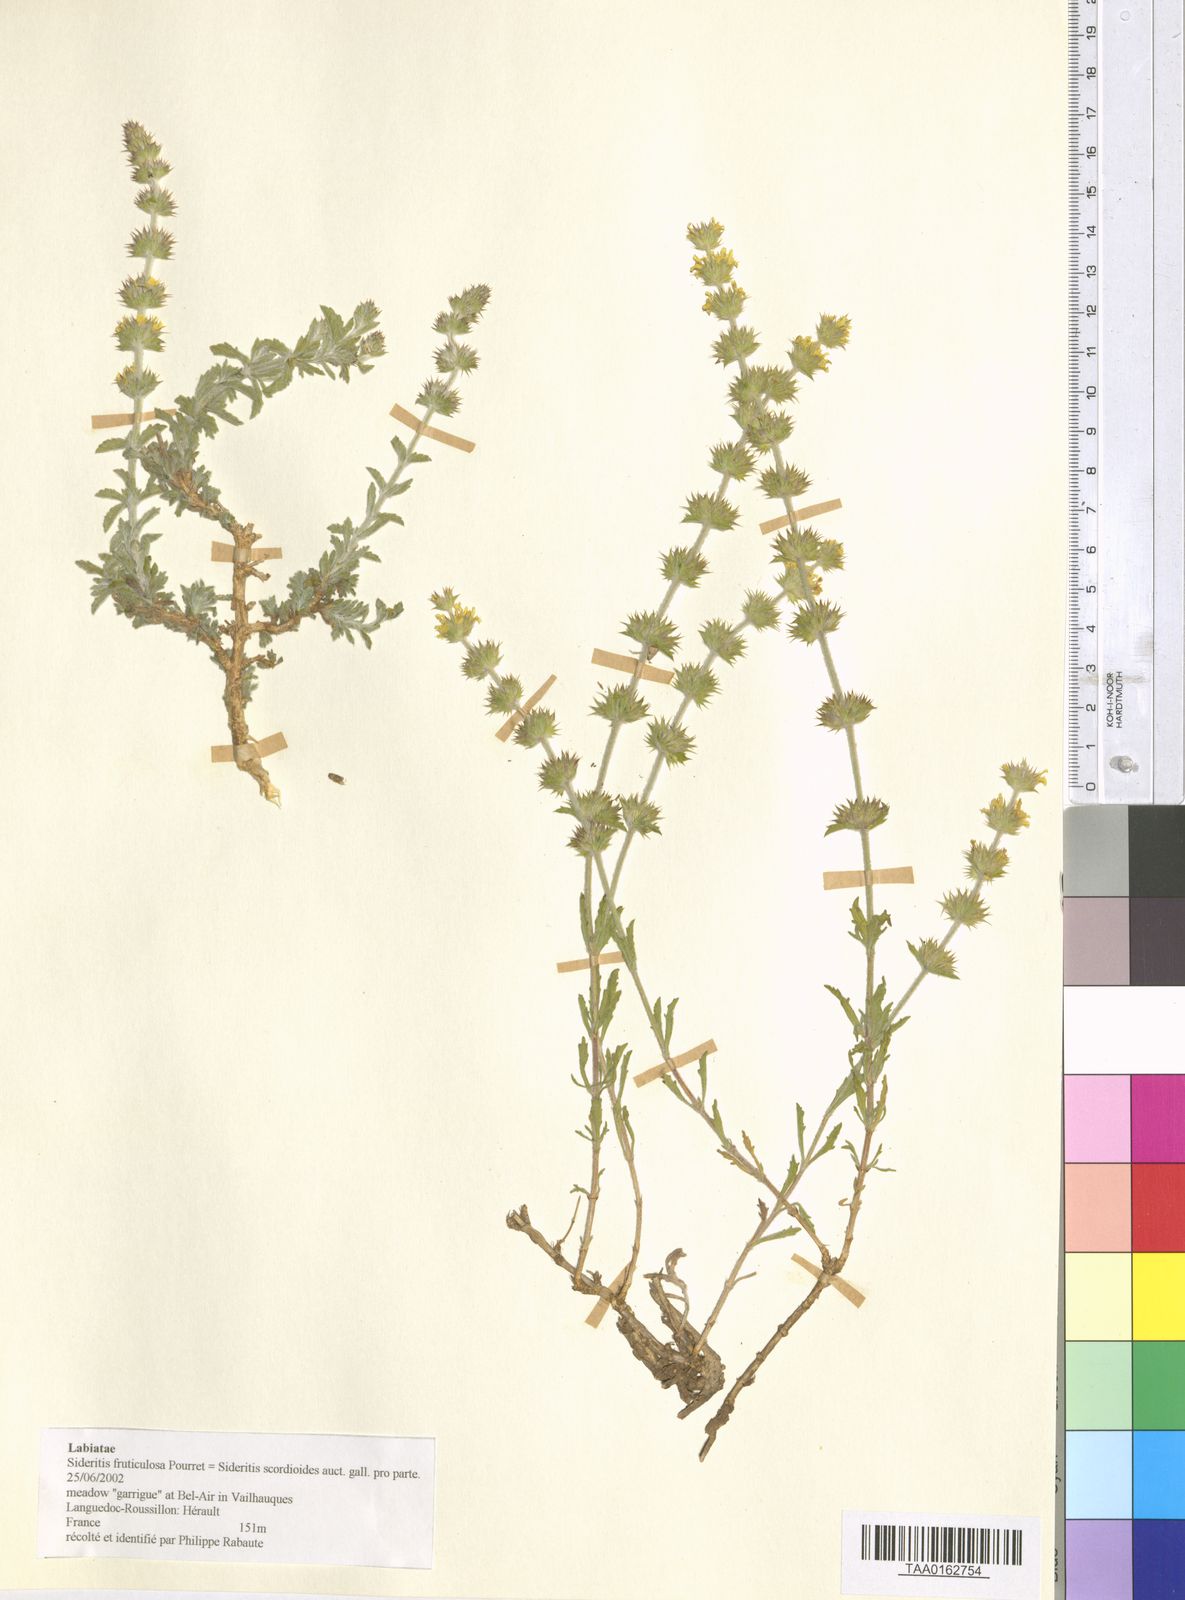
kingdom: Plantae
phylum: Tracheophyta
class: Magnoliopsida
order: Lamiales
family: Lamiaceae
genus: Sideritis
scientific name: Sideritis fruticulosa
